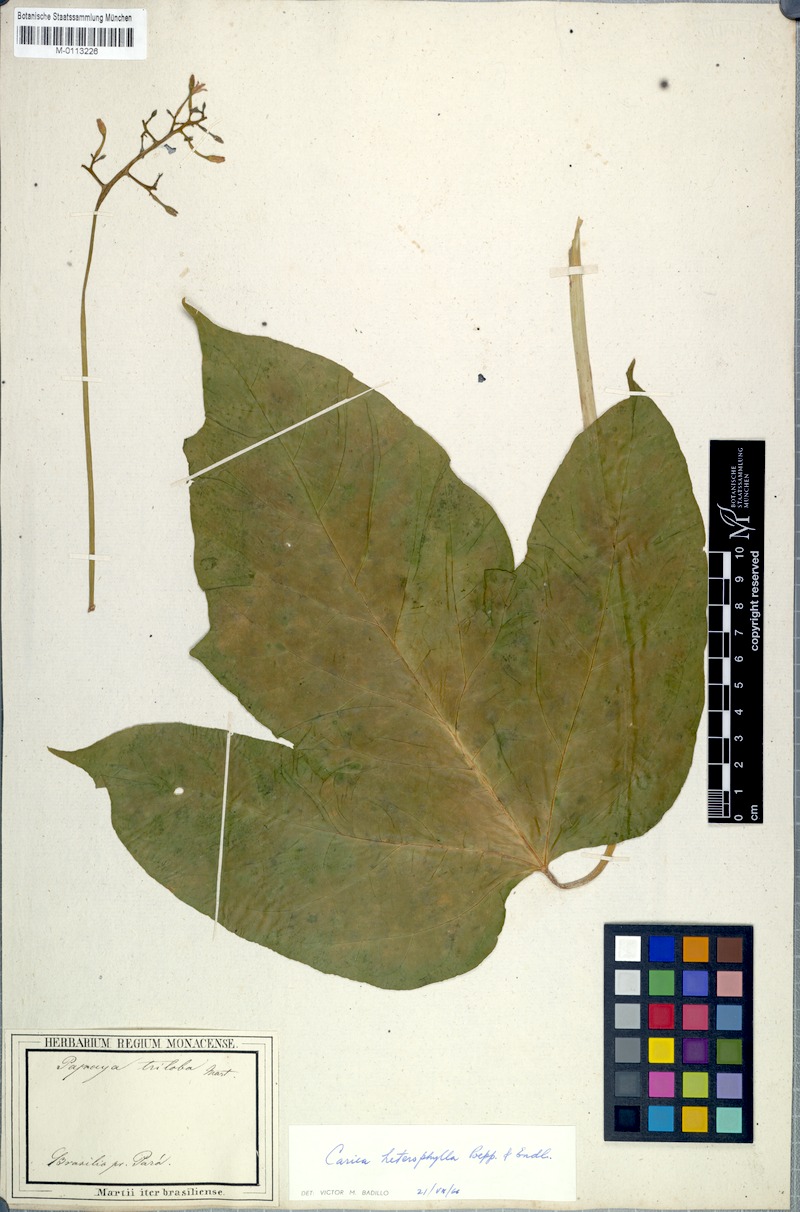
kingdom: Plantae
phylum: Tracheophyta
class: Magnoliopsida
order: Brassicales
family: Caricaceae
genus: Vasconcellea
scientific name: Vasconcellea microcarpa
